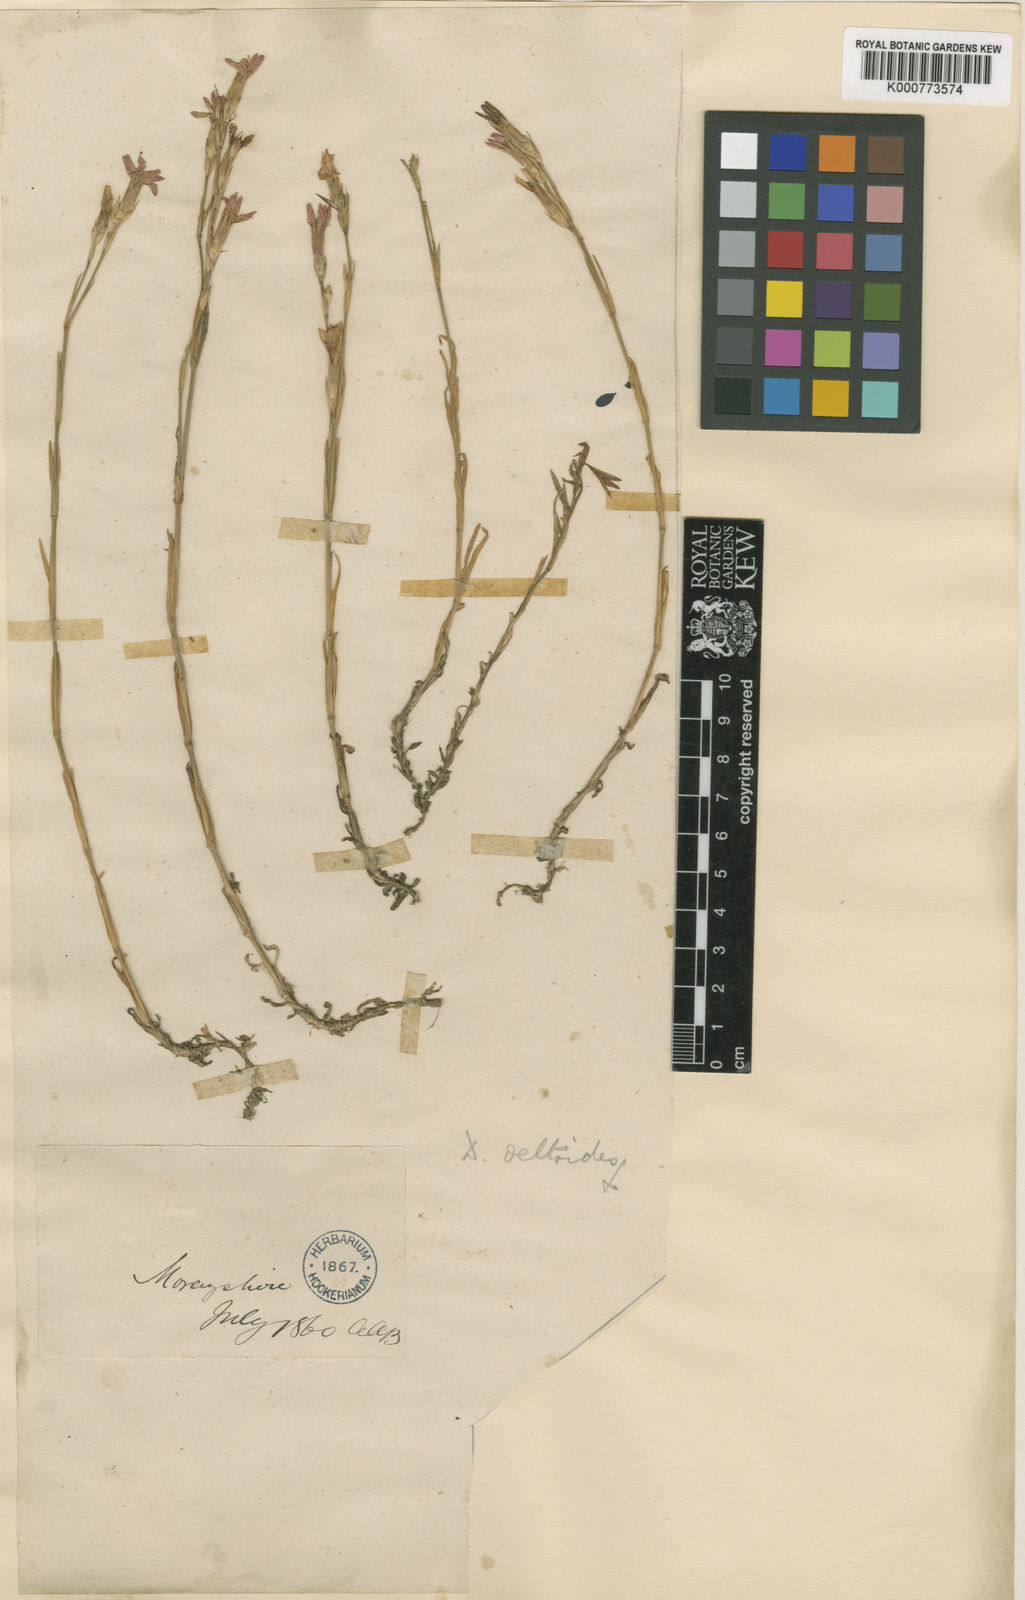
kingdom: Plantae
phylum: Tracheophyta
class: Magnoliopsida
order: Caryophyllales
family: Caryophyllaceae
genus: Dianthus
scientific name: Dianthus deltoides
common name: Maiden pink
